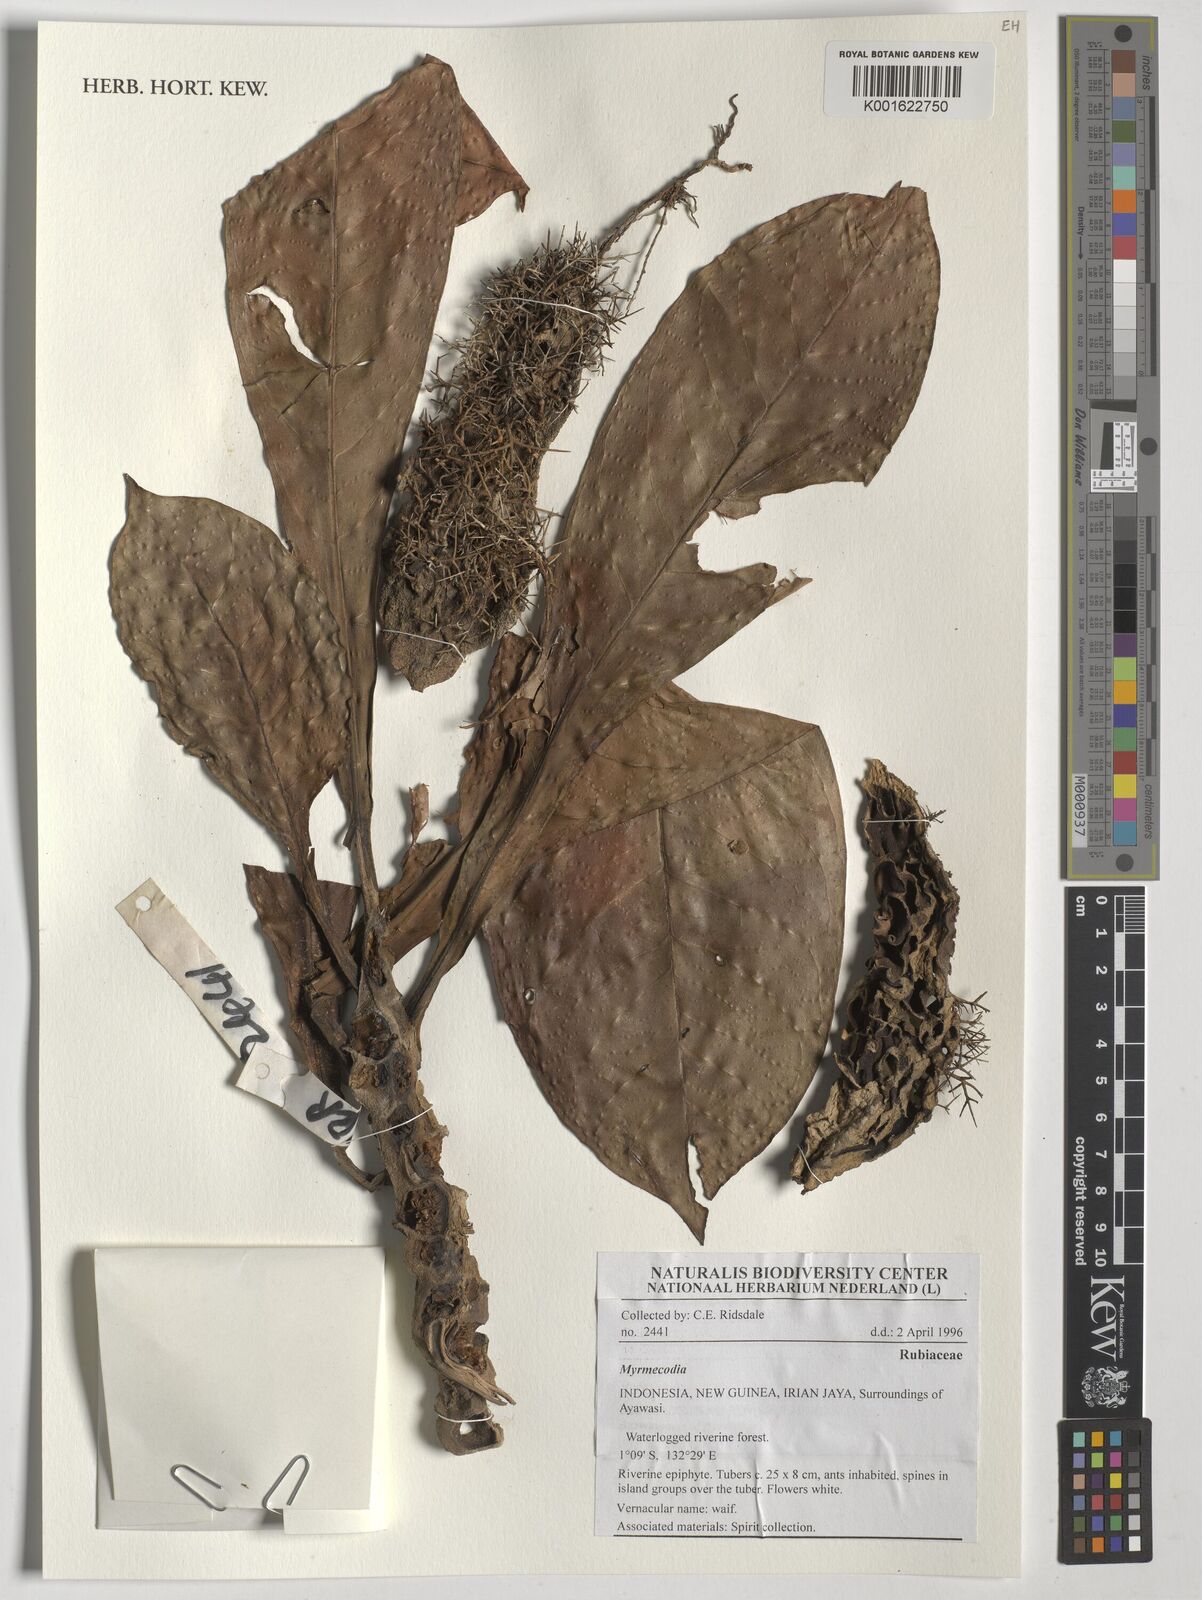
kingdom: Plantae
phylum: Tracheophyta
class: Magnoliopsida
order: Gentianales
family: Rubiaceae
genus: Myrmecodia
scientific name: Myrmecodia
